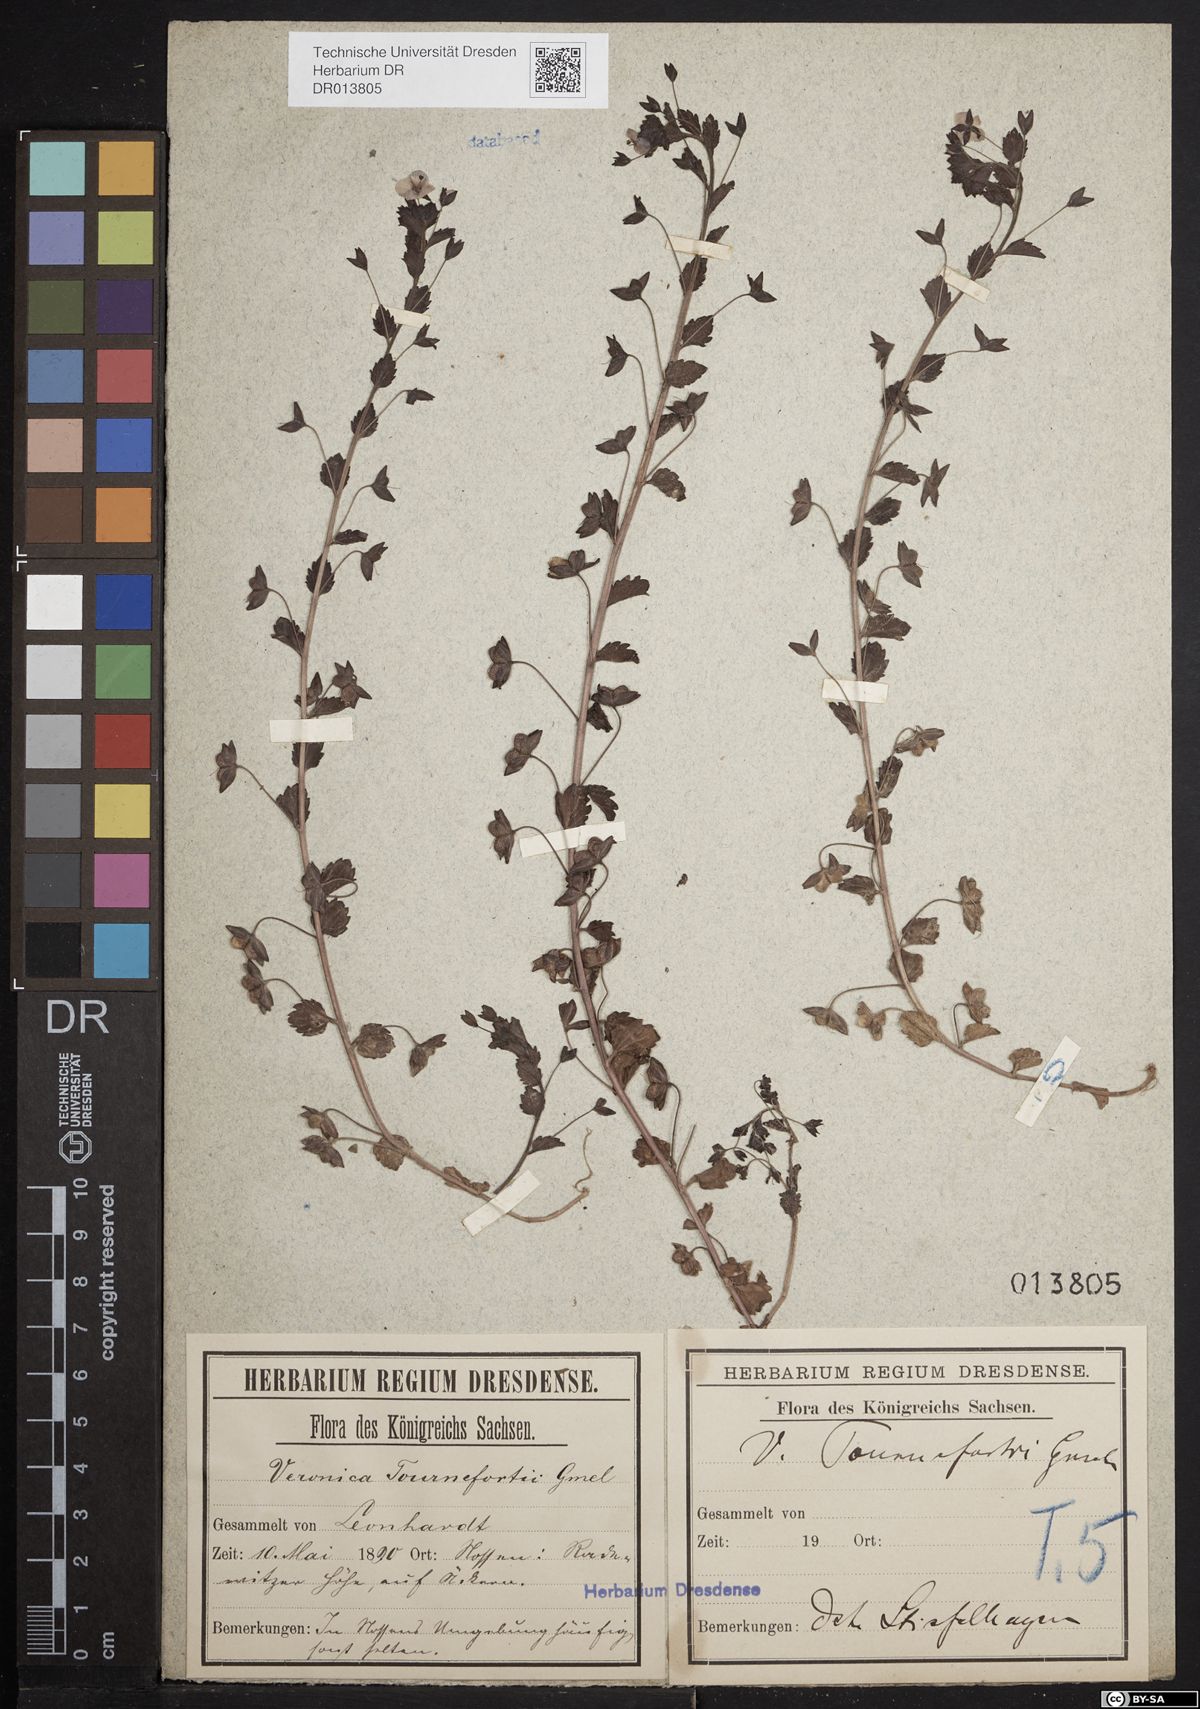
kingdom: Plantae
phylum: Tracheophyta
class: Magnoliopsida
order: Lamiales
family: Plantaginaceae
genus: Veronica
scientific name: Veronica persica
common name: Common field-speedwell
